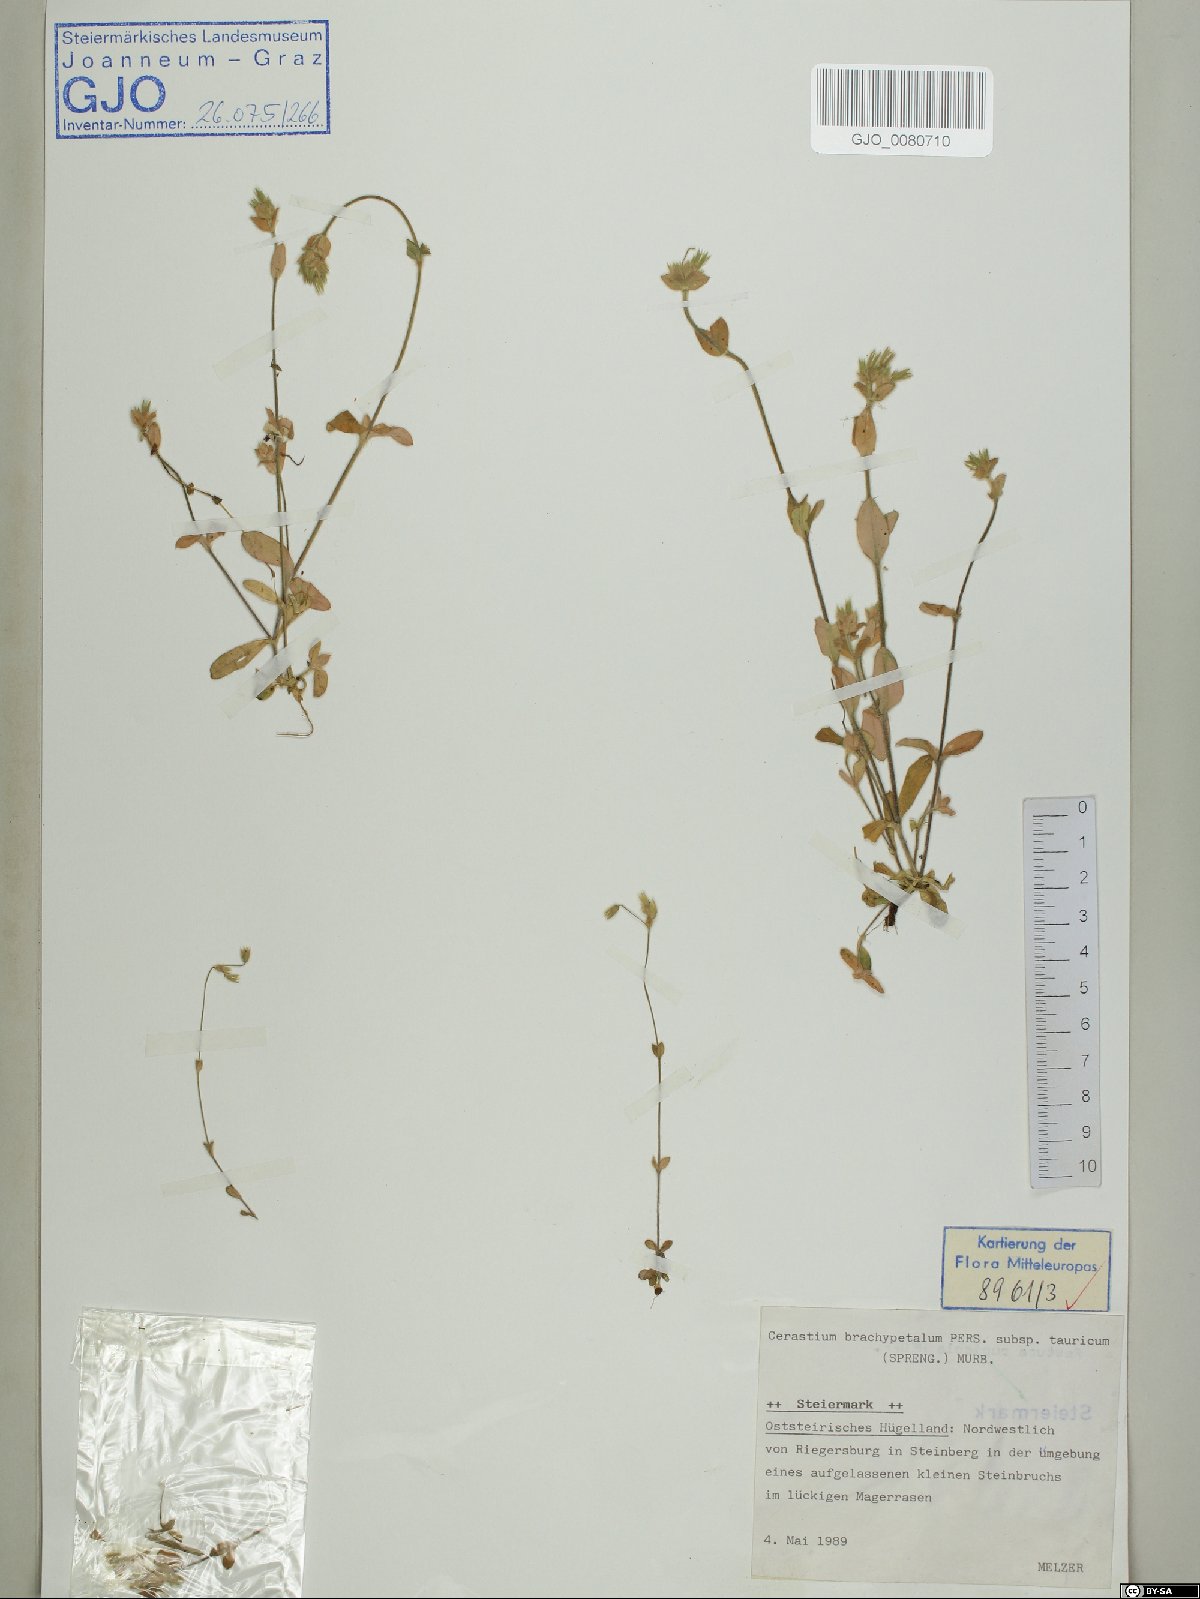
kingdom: Plantae
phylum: Tracheophyta
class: Magnoliopsida
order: Caryophyllales
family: Caryophyllaceae
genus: Cerastium
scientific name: Cerastium brachypetalum
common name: Grey mouse-ear
